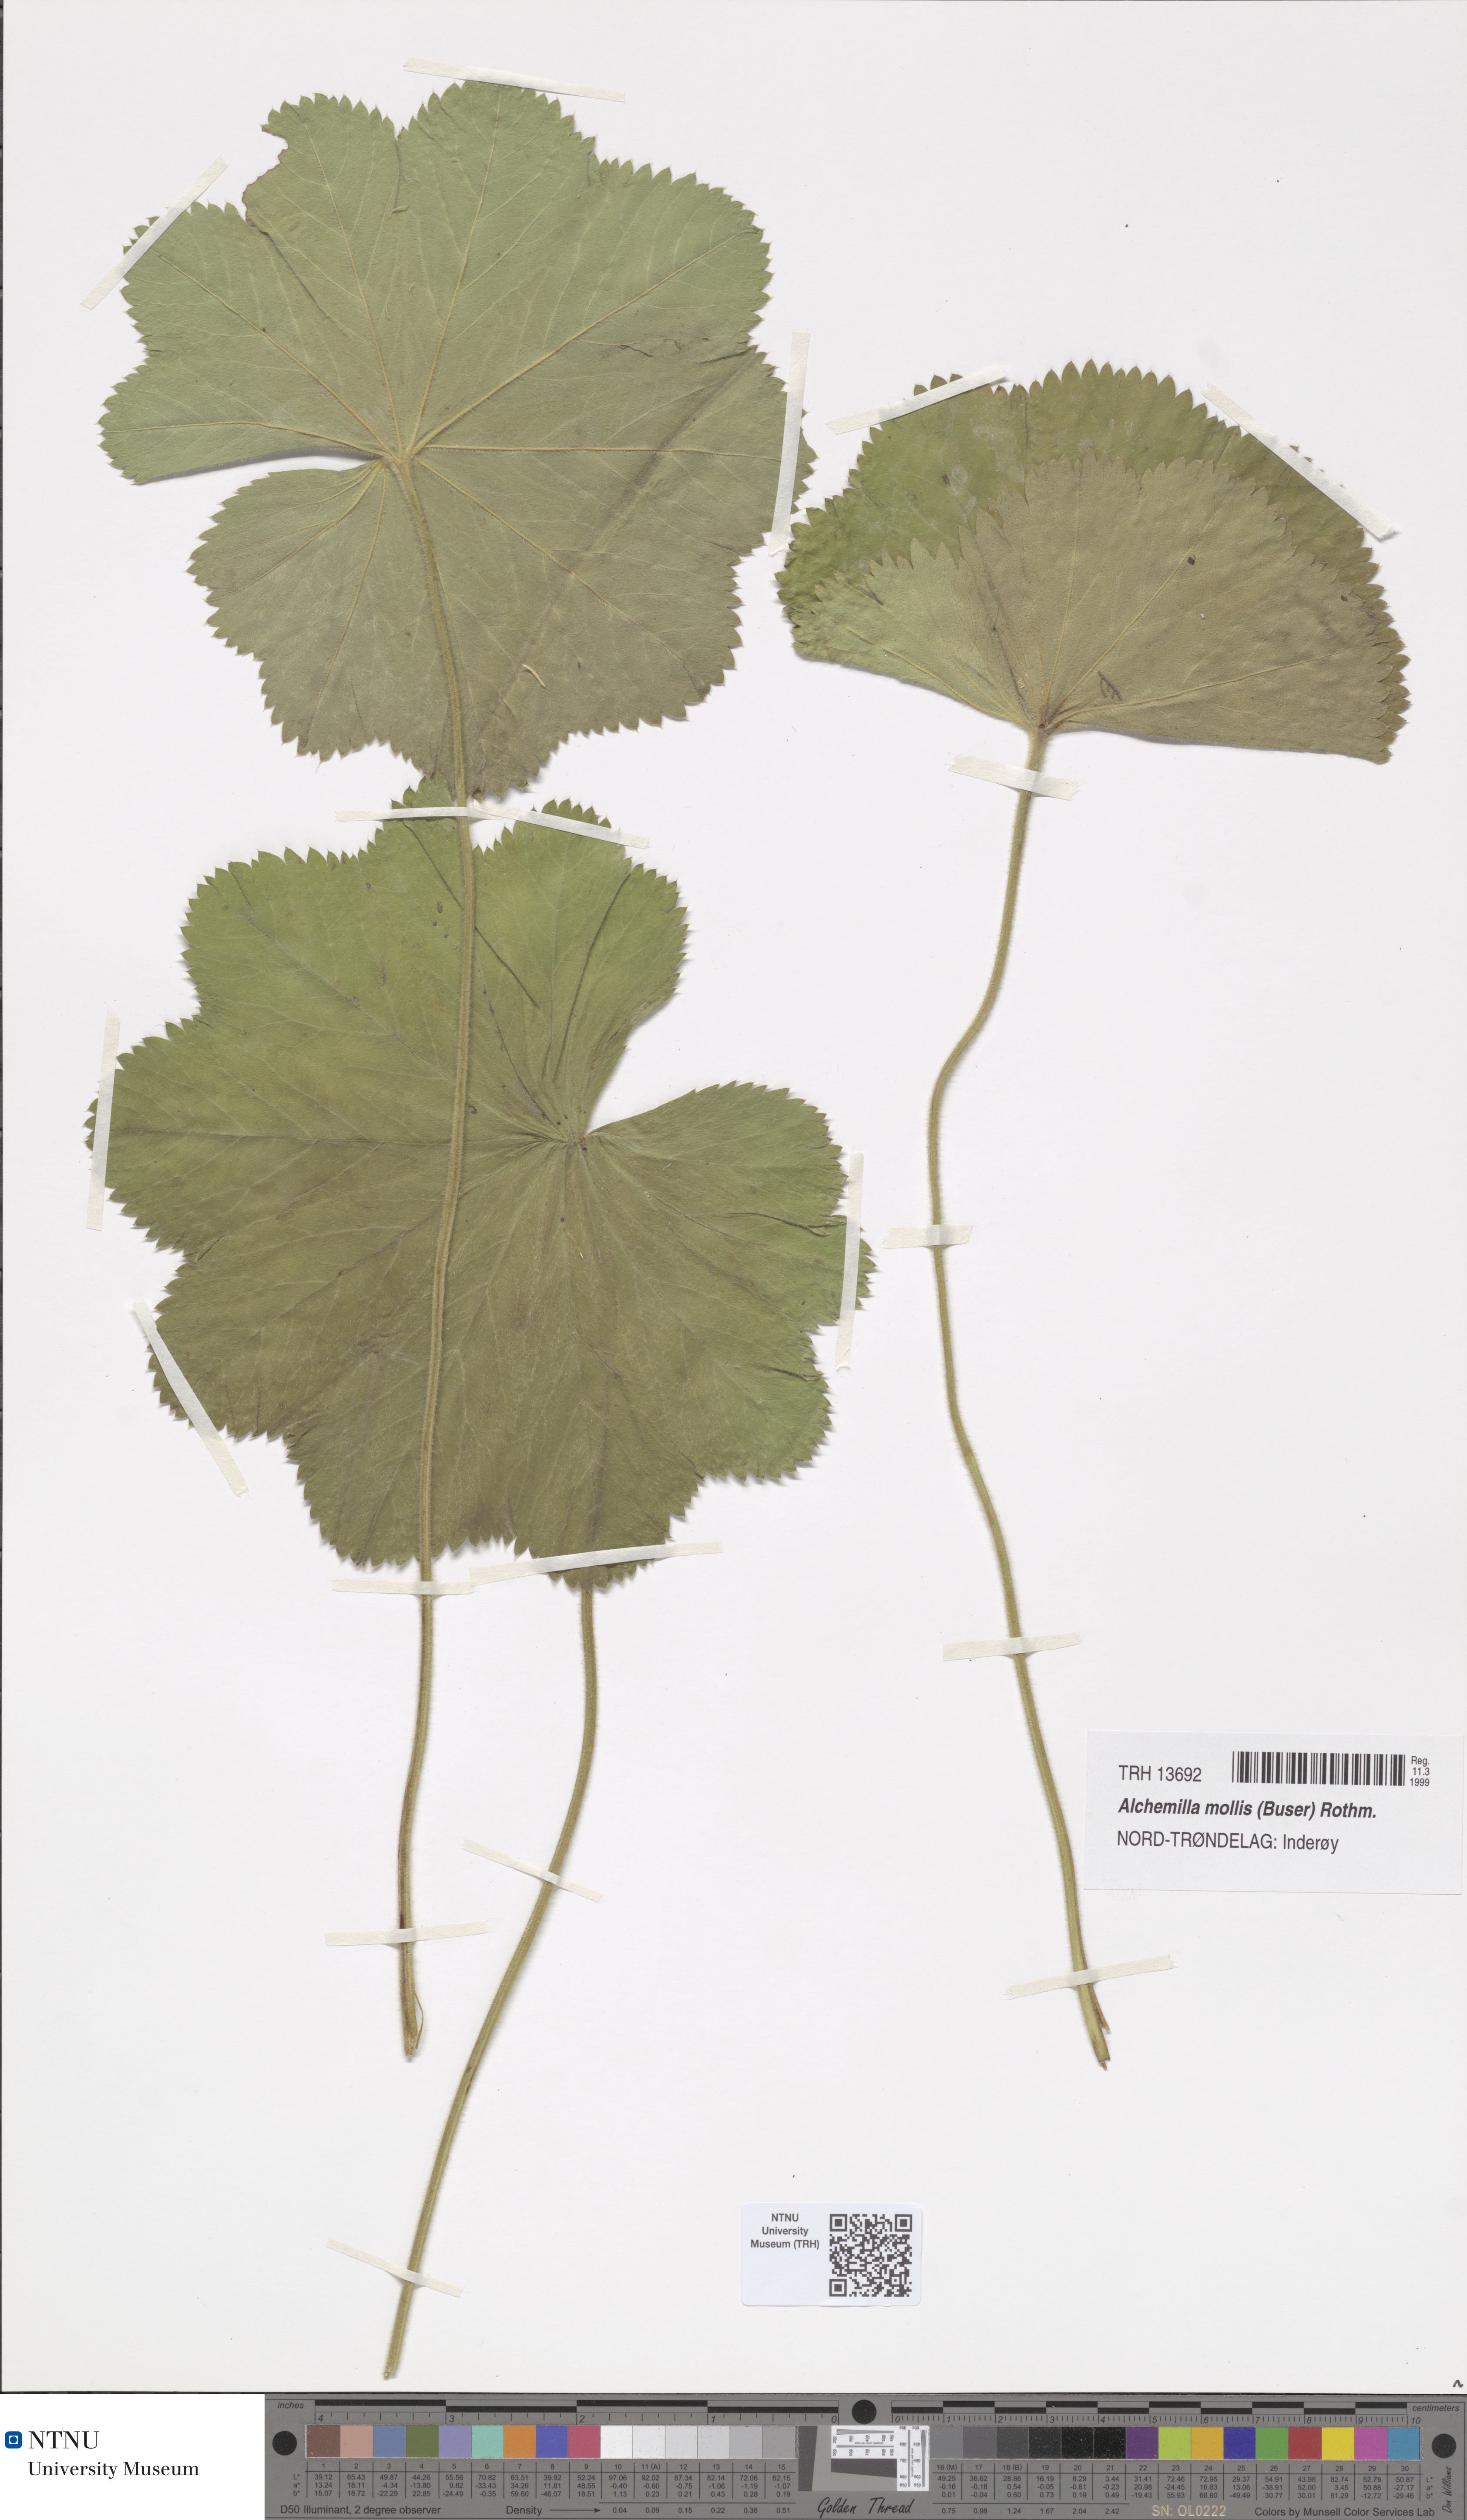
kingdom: Plantae
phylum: Tracheophyta
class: Magnoliopsida
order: Rosales
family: Rosaceae
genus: Alchemilla
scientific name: Alchemilla mollis
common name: Lady's-mantle
